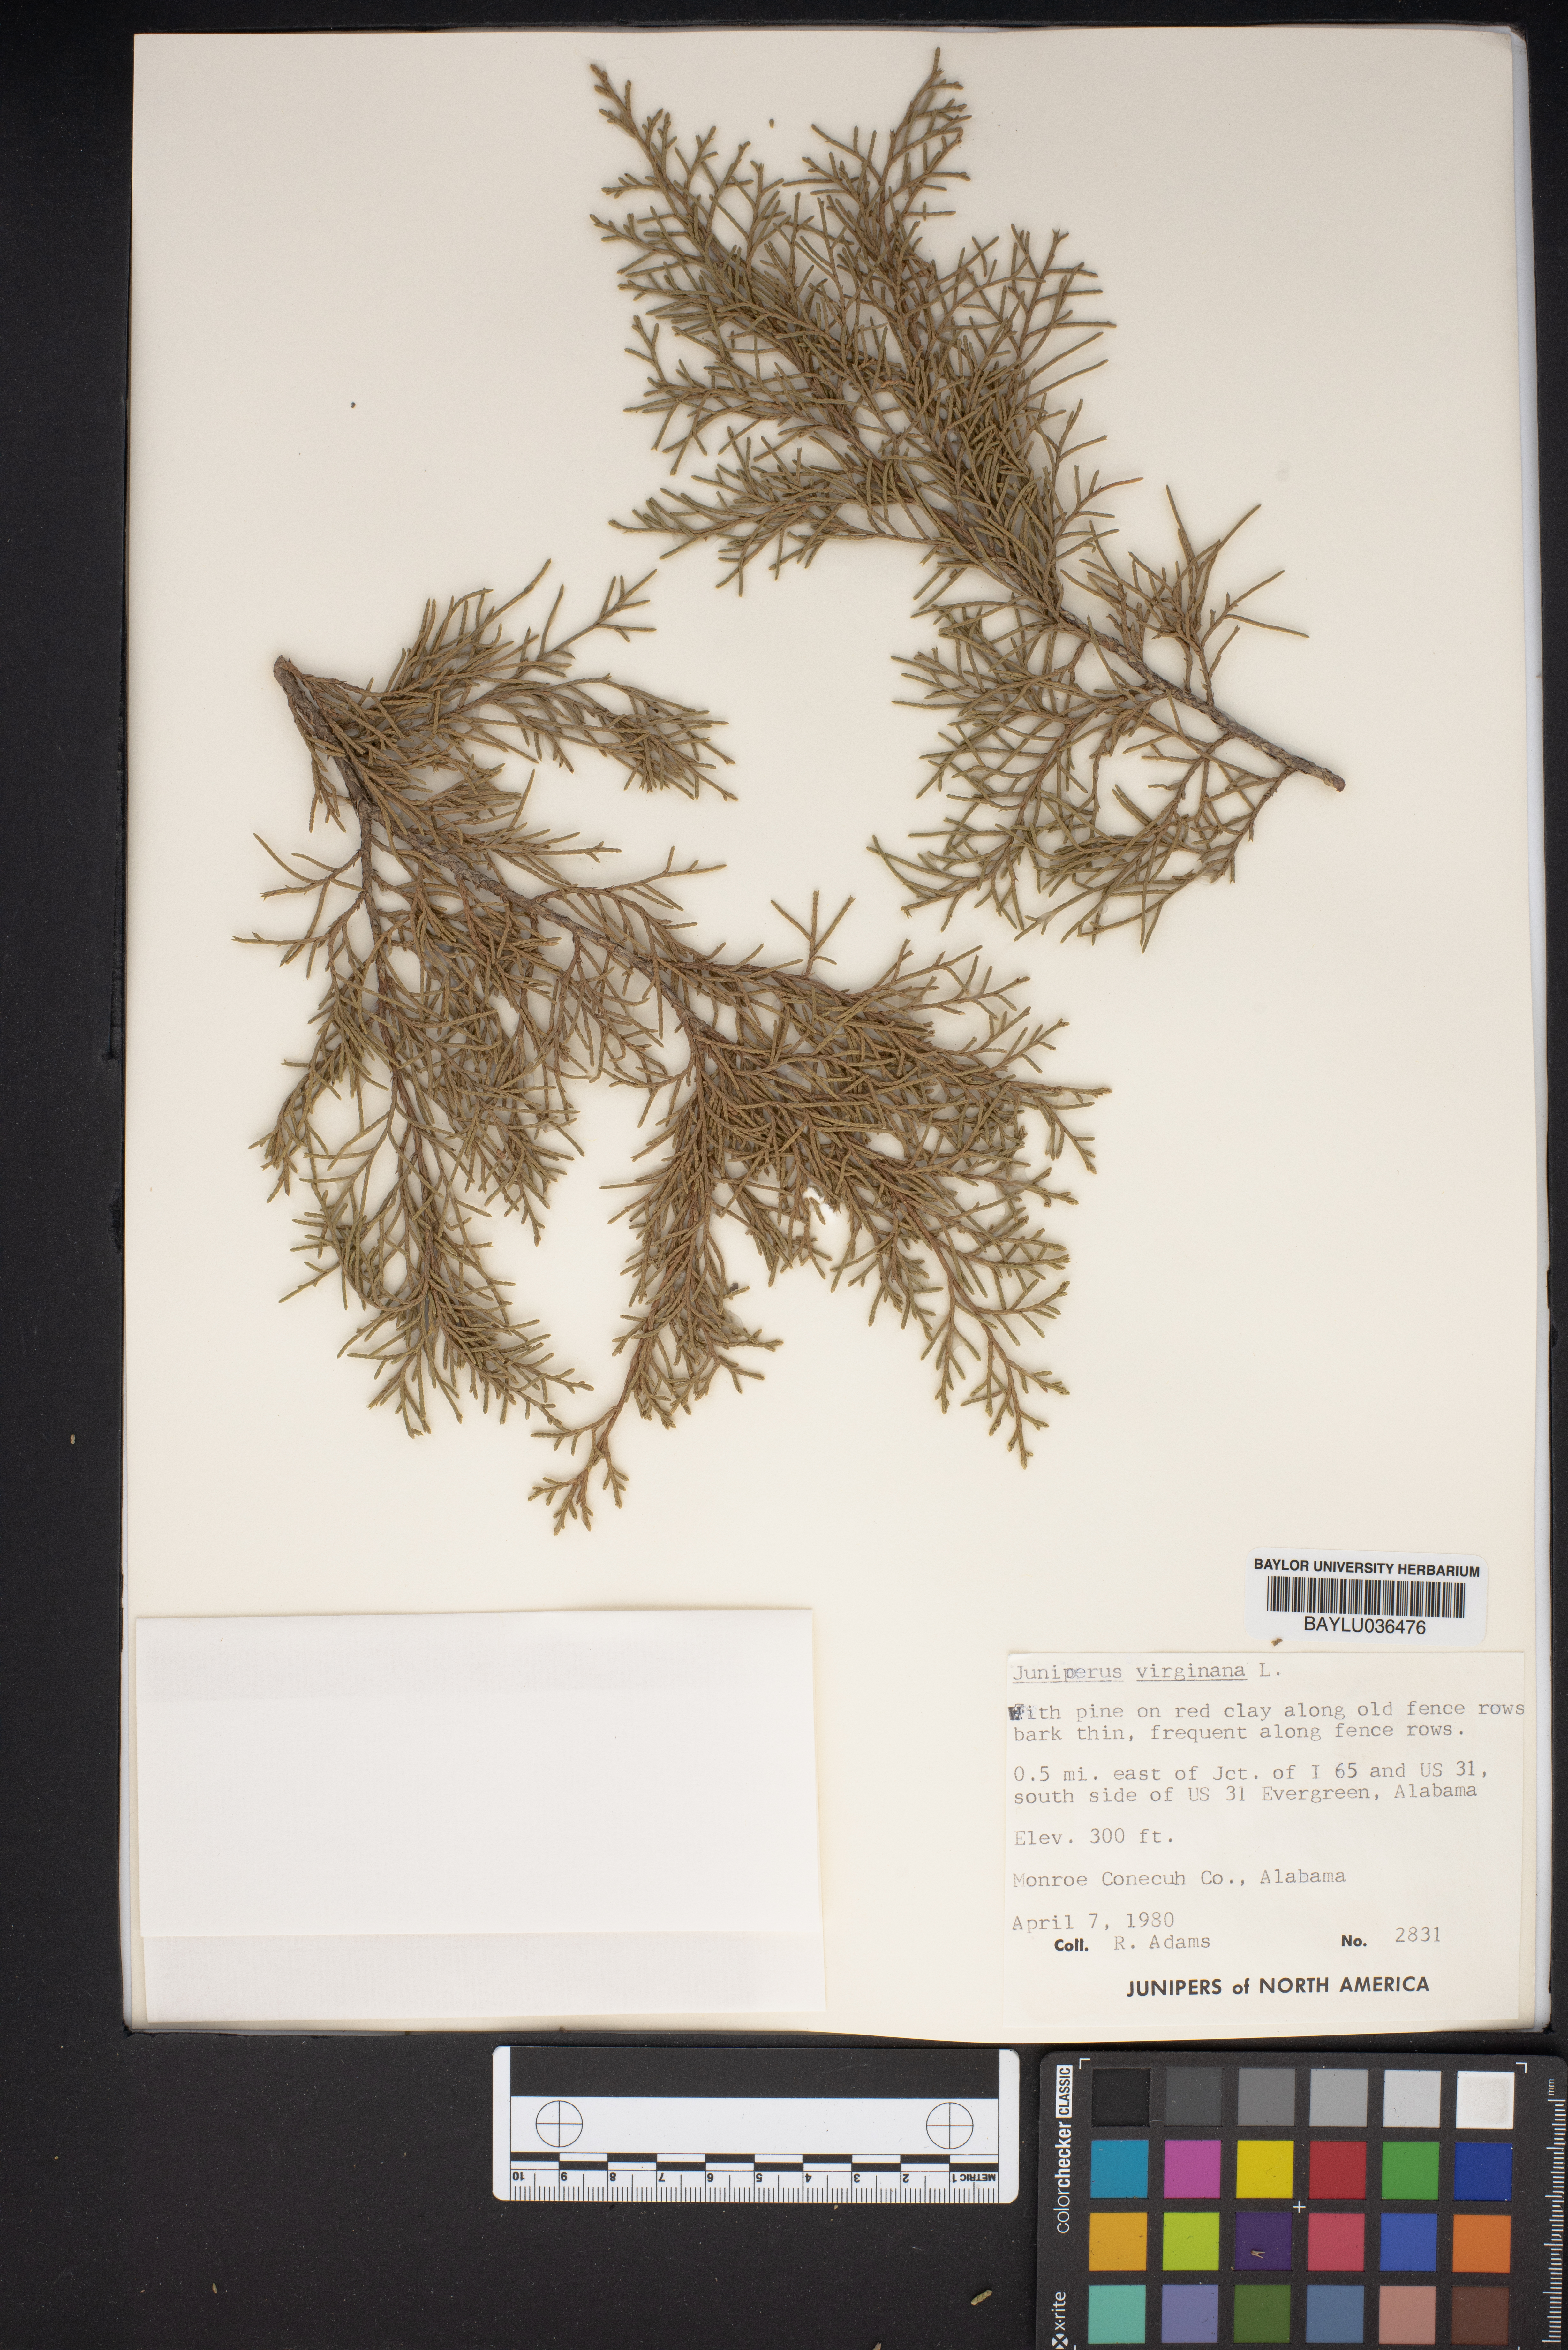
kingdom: Plantae
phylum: Tracheophyta
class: Pinopsida
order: Pinales
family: Cupressaceae
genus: Juniperus
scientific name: Juniperus virginiana
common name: Red juniper
